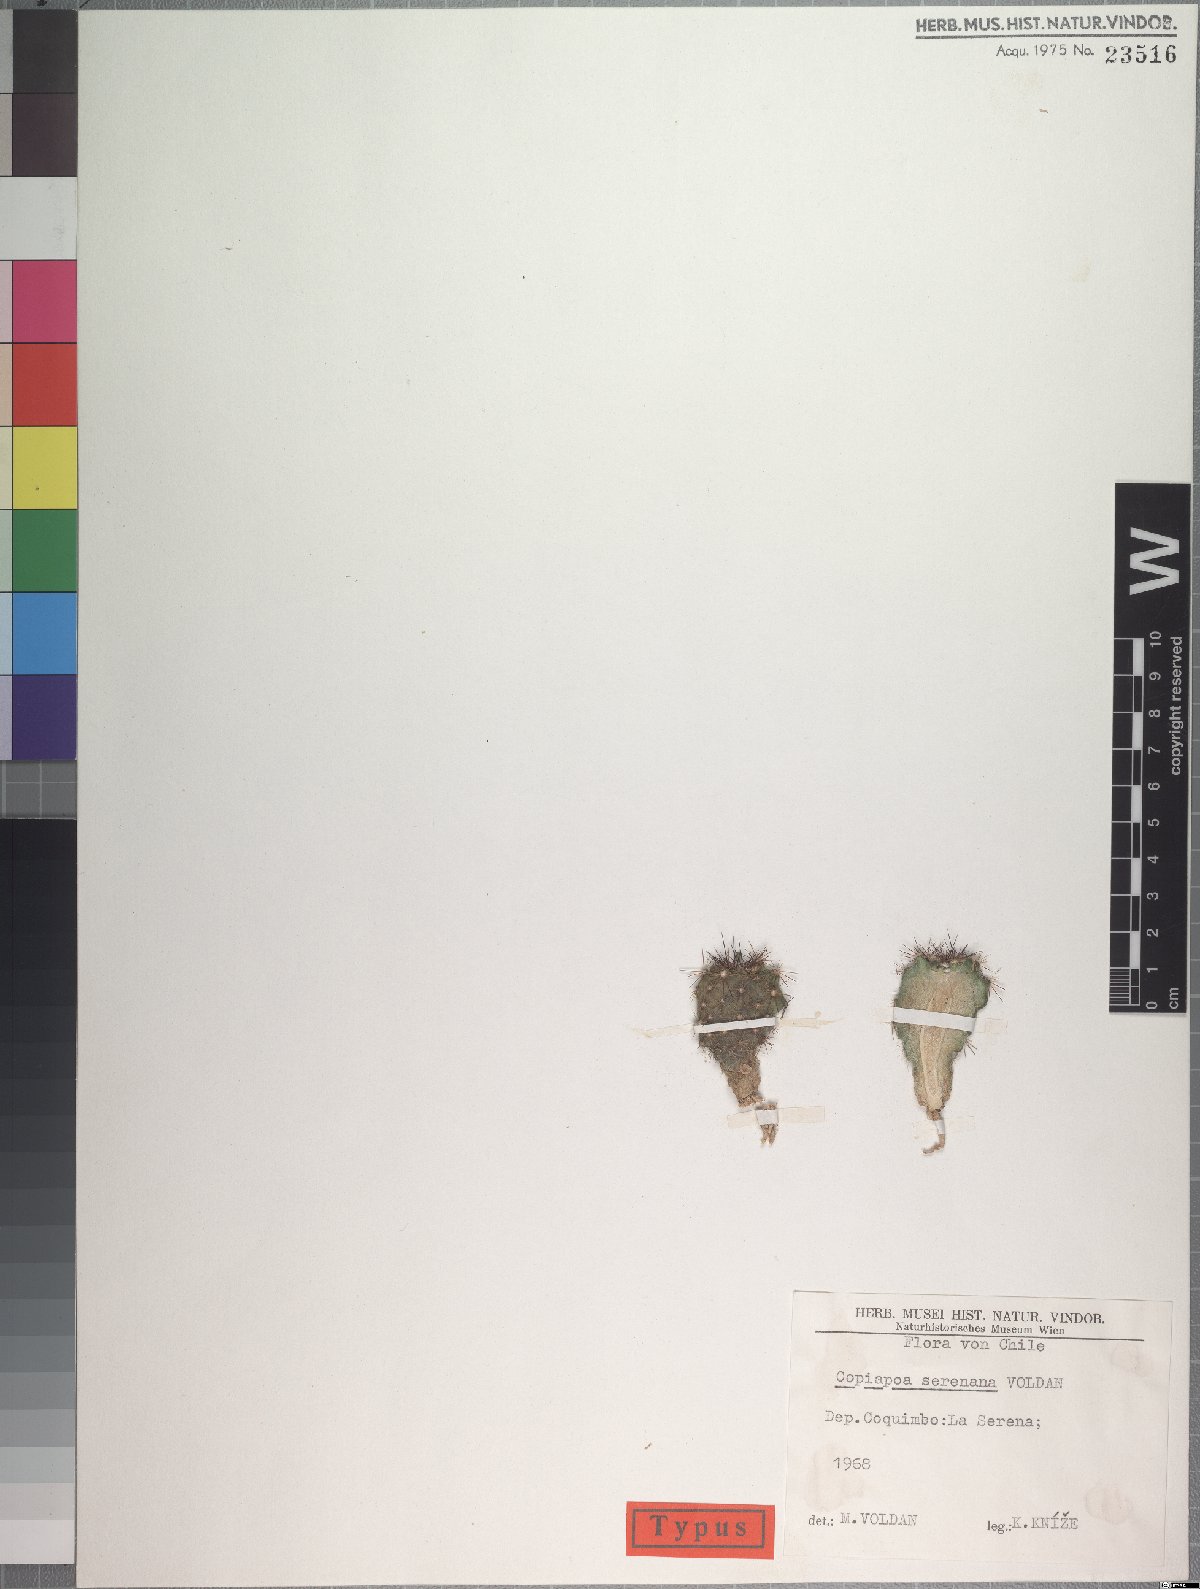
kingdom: Plantae
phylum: Tracheophyta
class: Magnoliopsida
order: Caryophyllales
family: Cactaceae
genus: Copiapoa
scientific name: Copiapoa coquimbana
